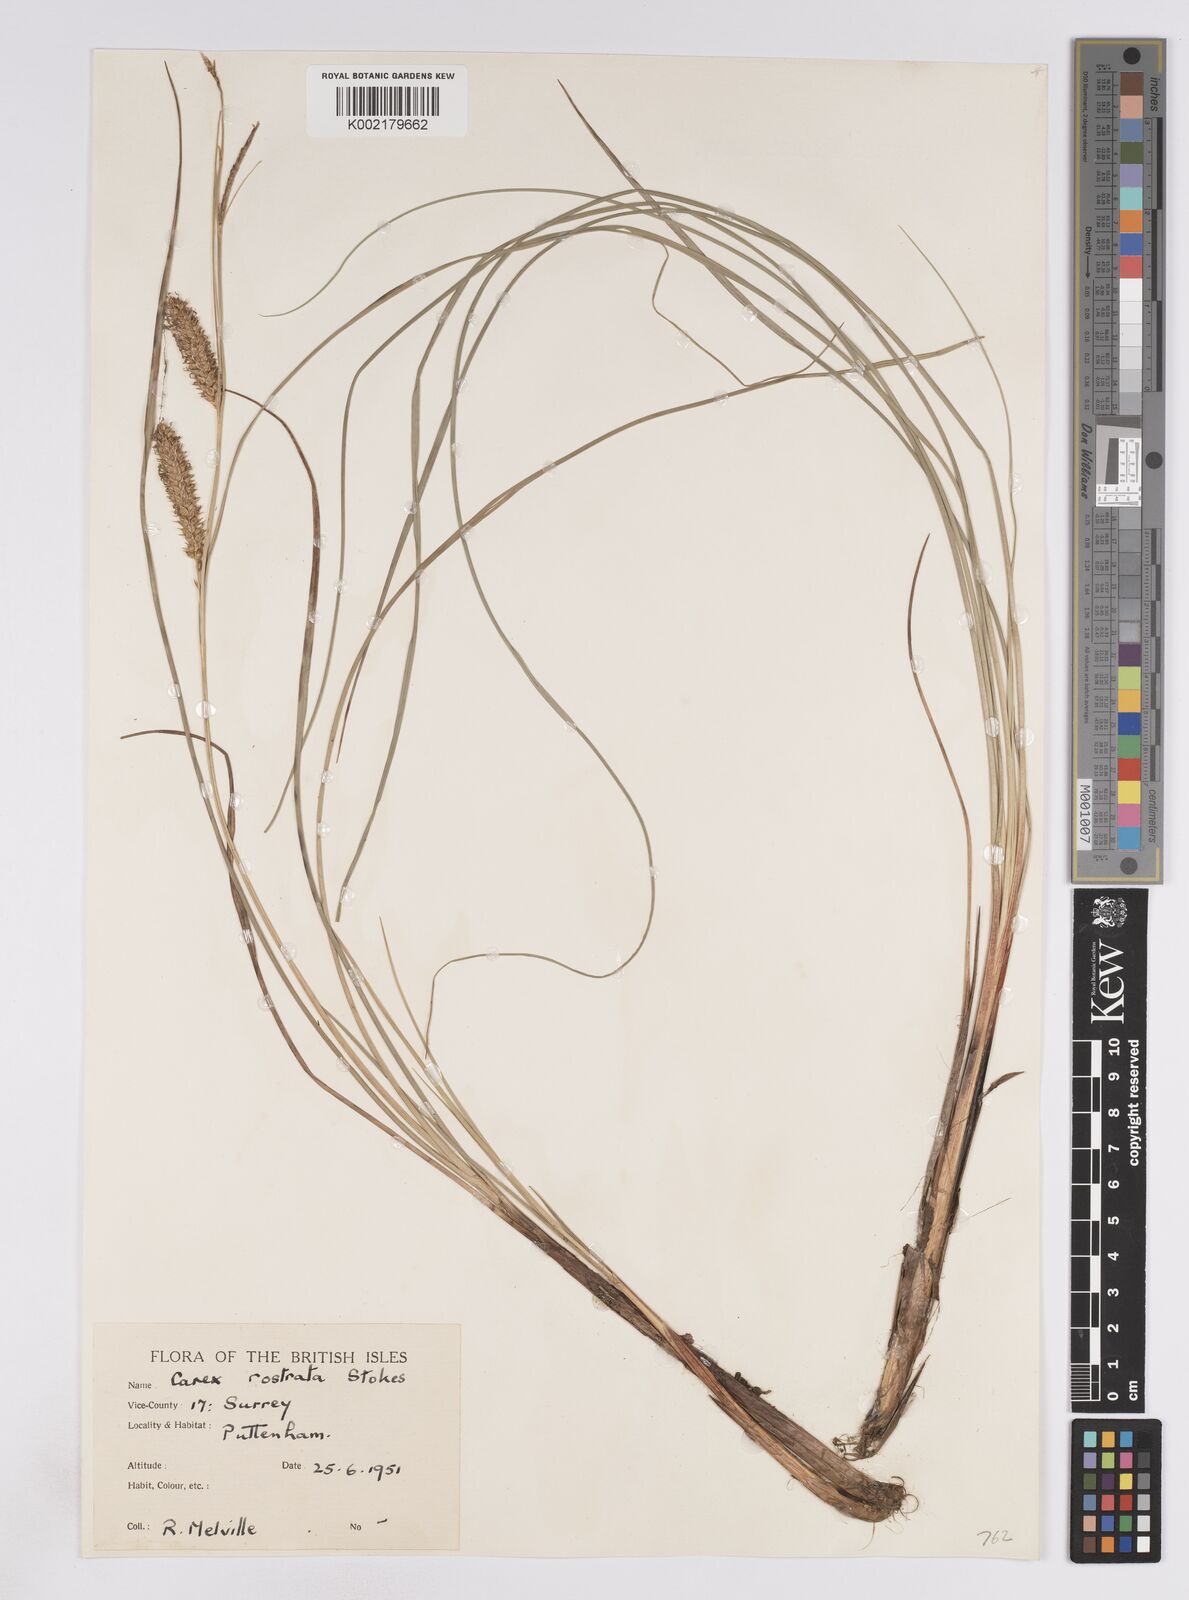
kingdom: Plantae
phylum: Tracheophyta
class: Liliopsida
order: Poales
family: Cyperaceae
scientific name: Cyperaceae
